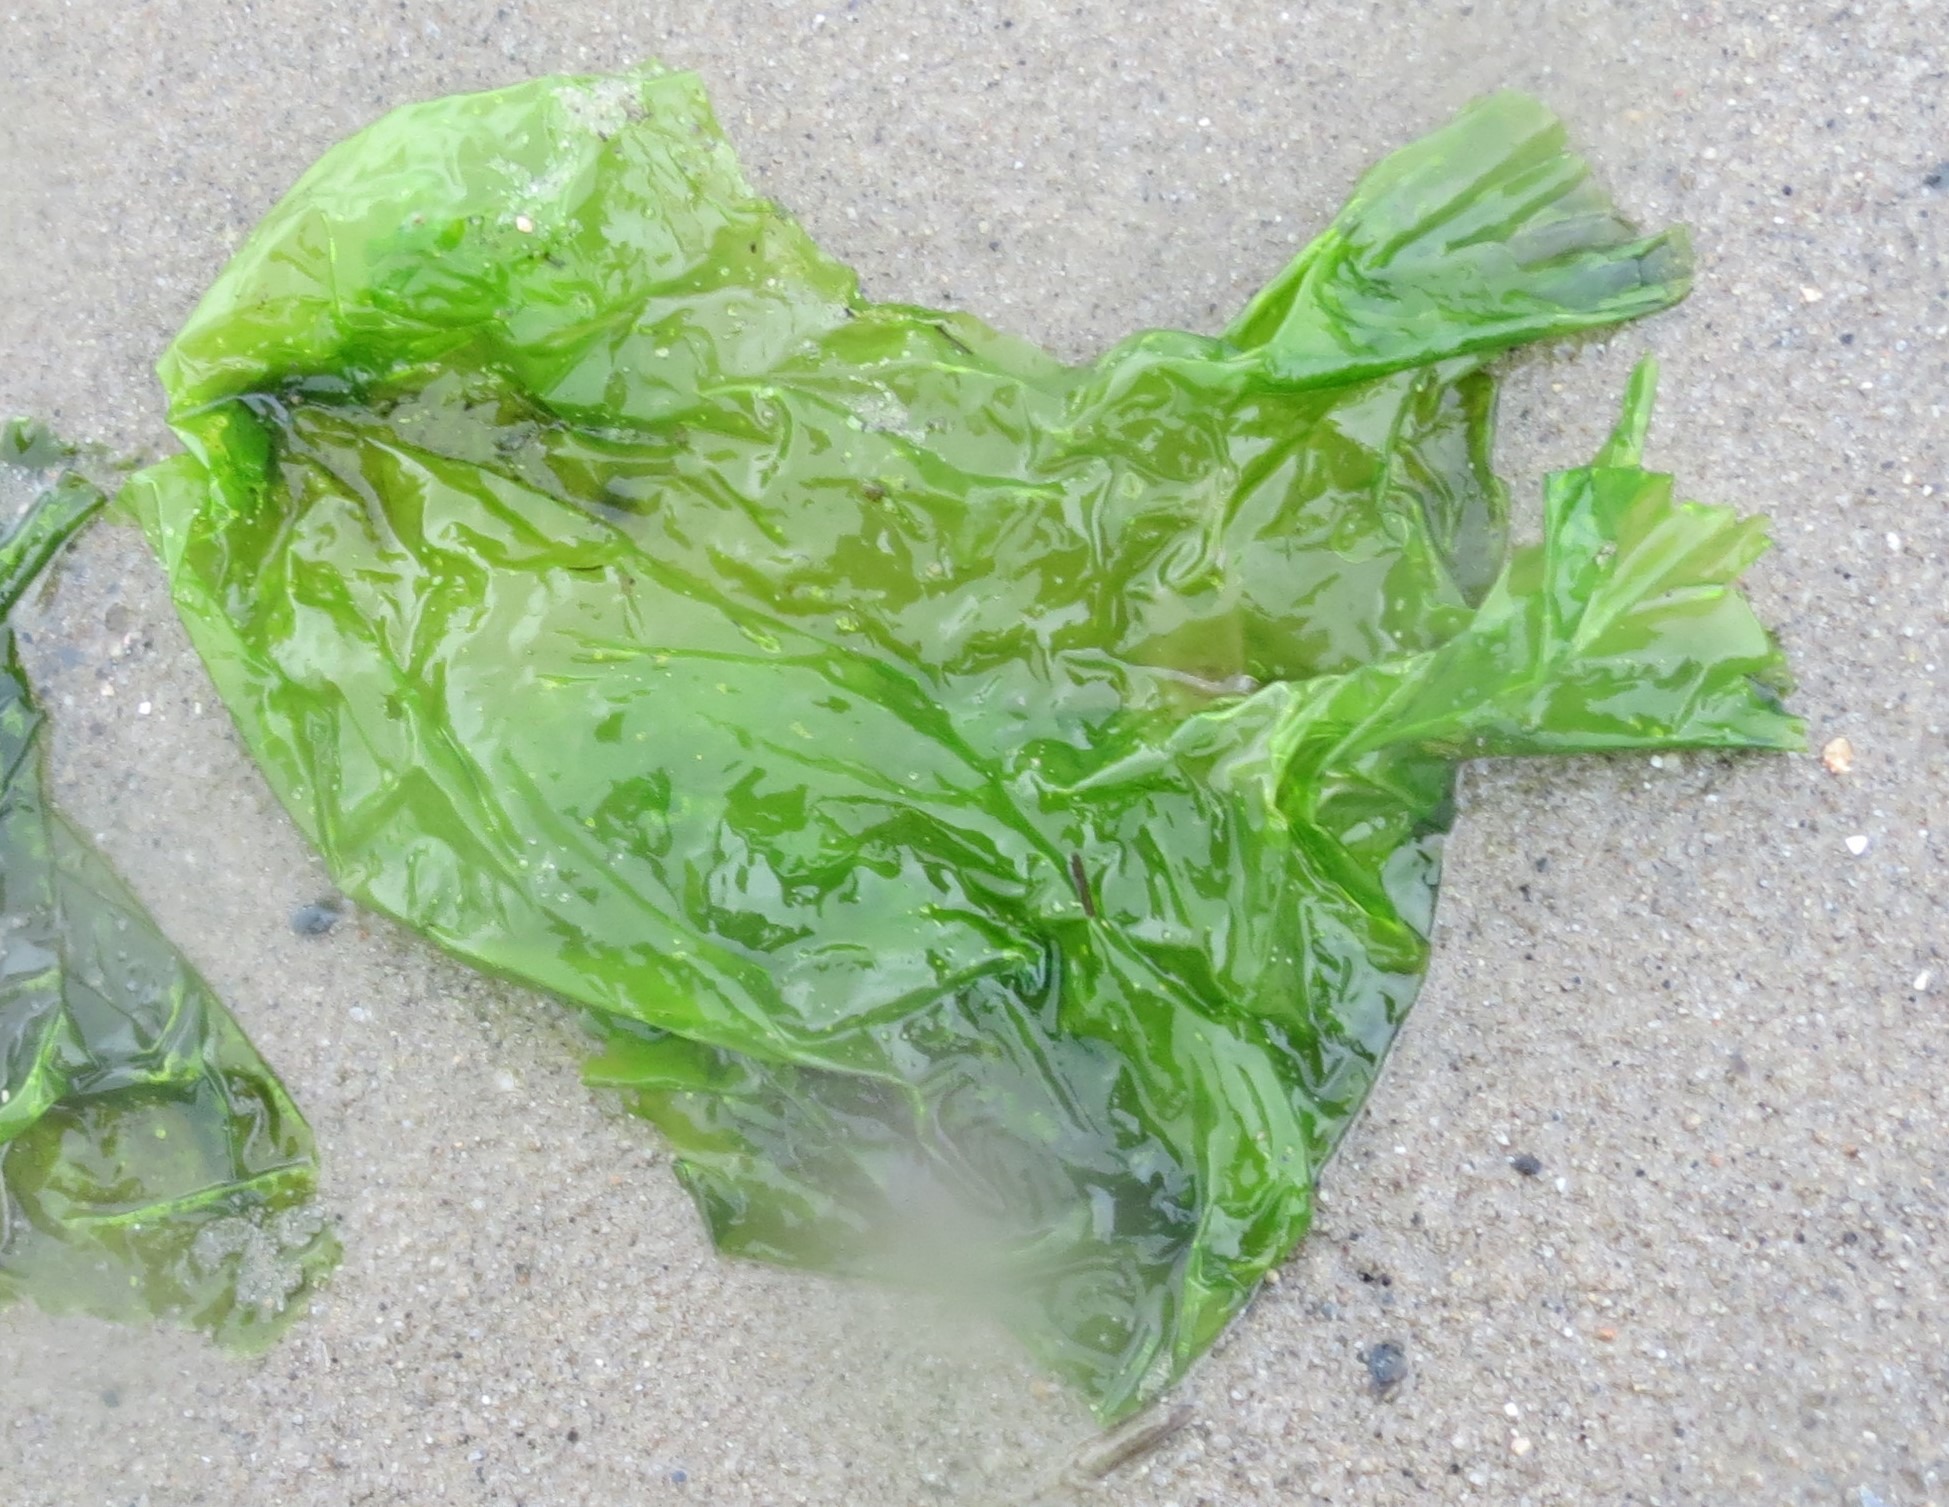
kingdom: Plantae
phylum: Chlorophyta
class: Ulvophyceae
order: Ulvales
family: Ulvaceae
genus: Ulva
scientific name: Ulva fenestrata
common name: Søsalat
